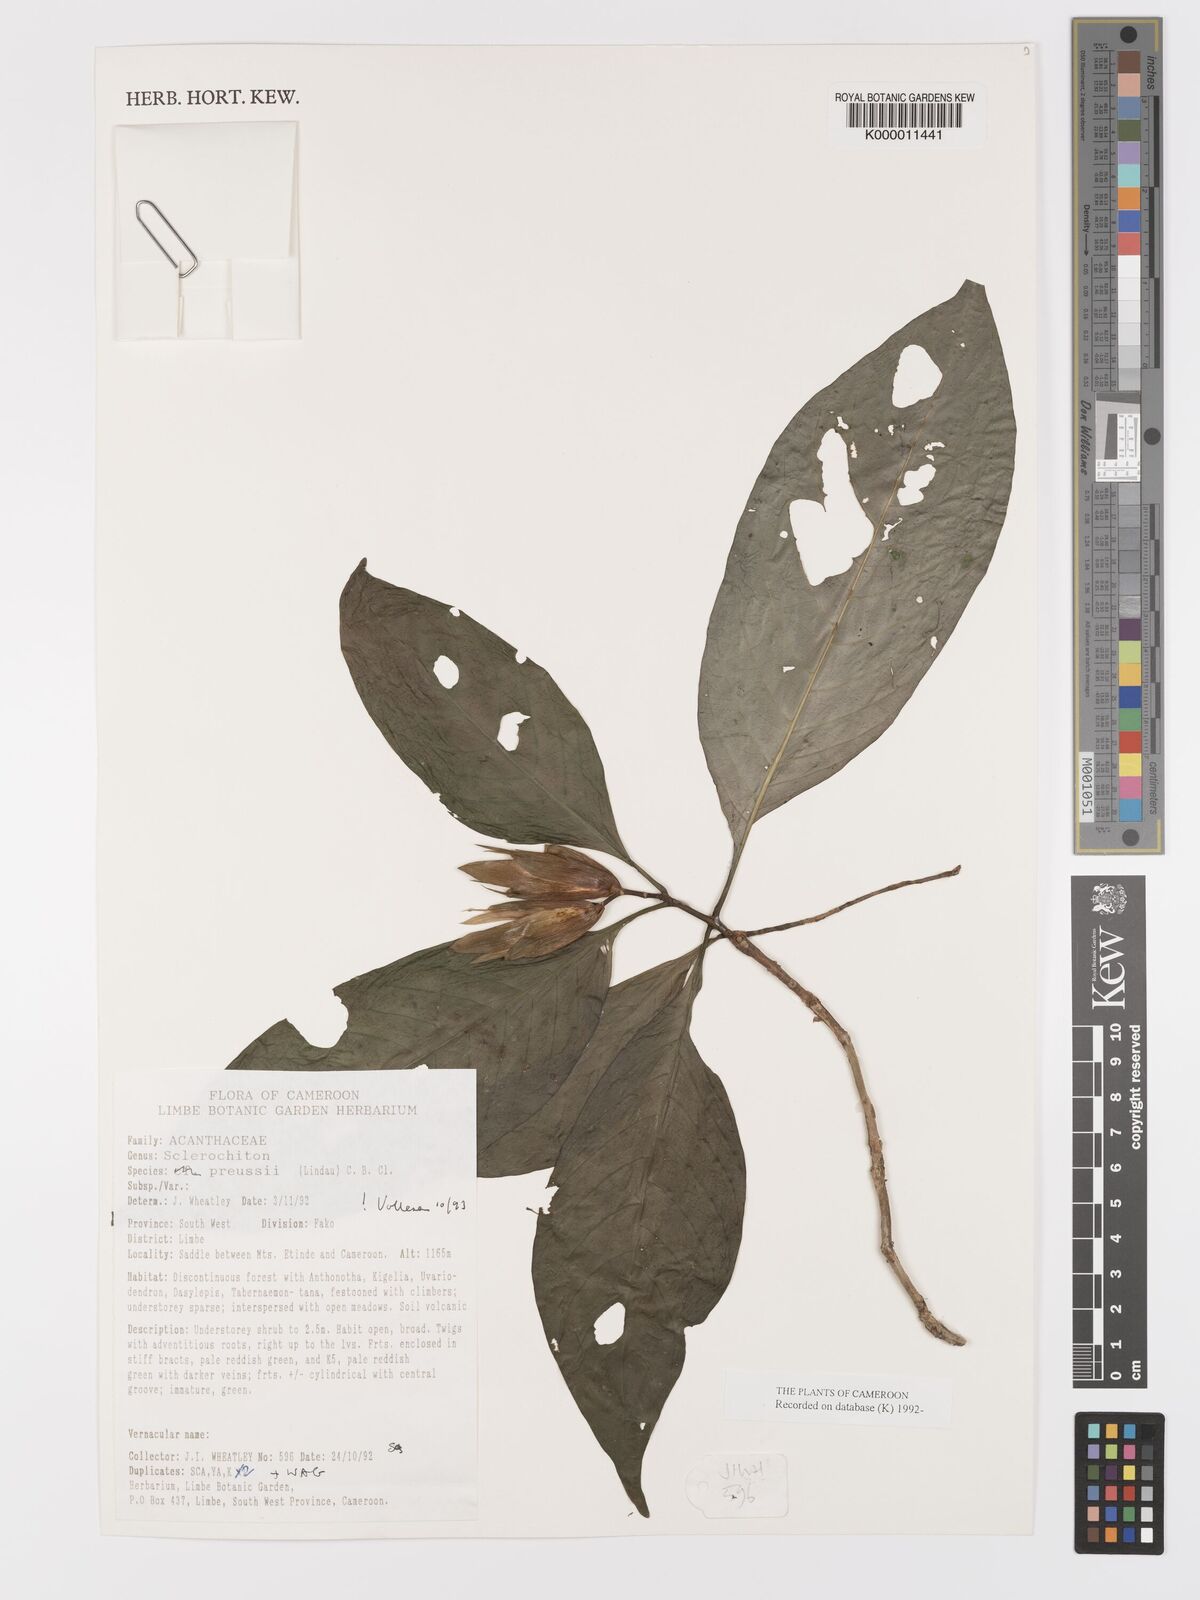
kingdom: Plantae
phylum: Tracheophyta
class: Magnoliopsida
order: Lamiales
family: Acanthaceae
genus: Sclerochiton
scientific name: Sclerochiton preussii
